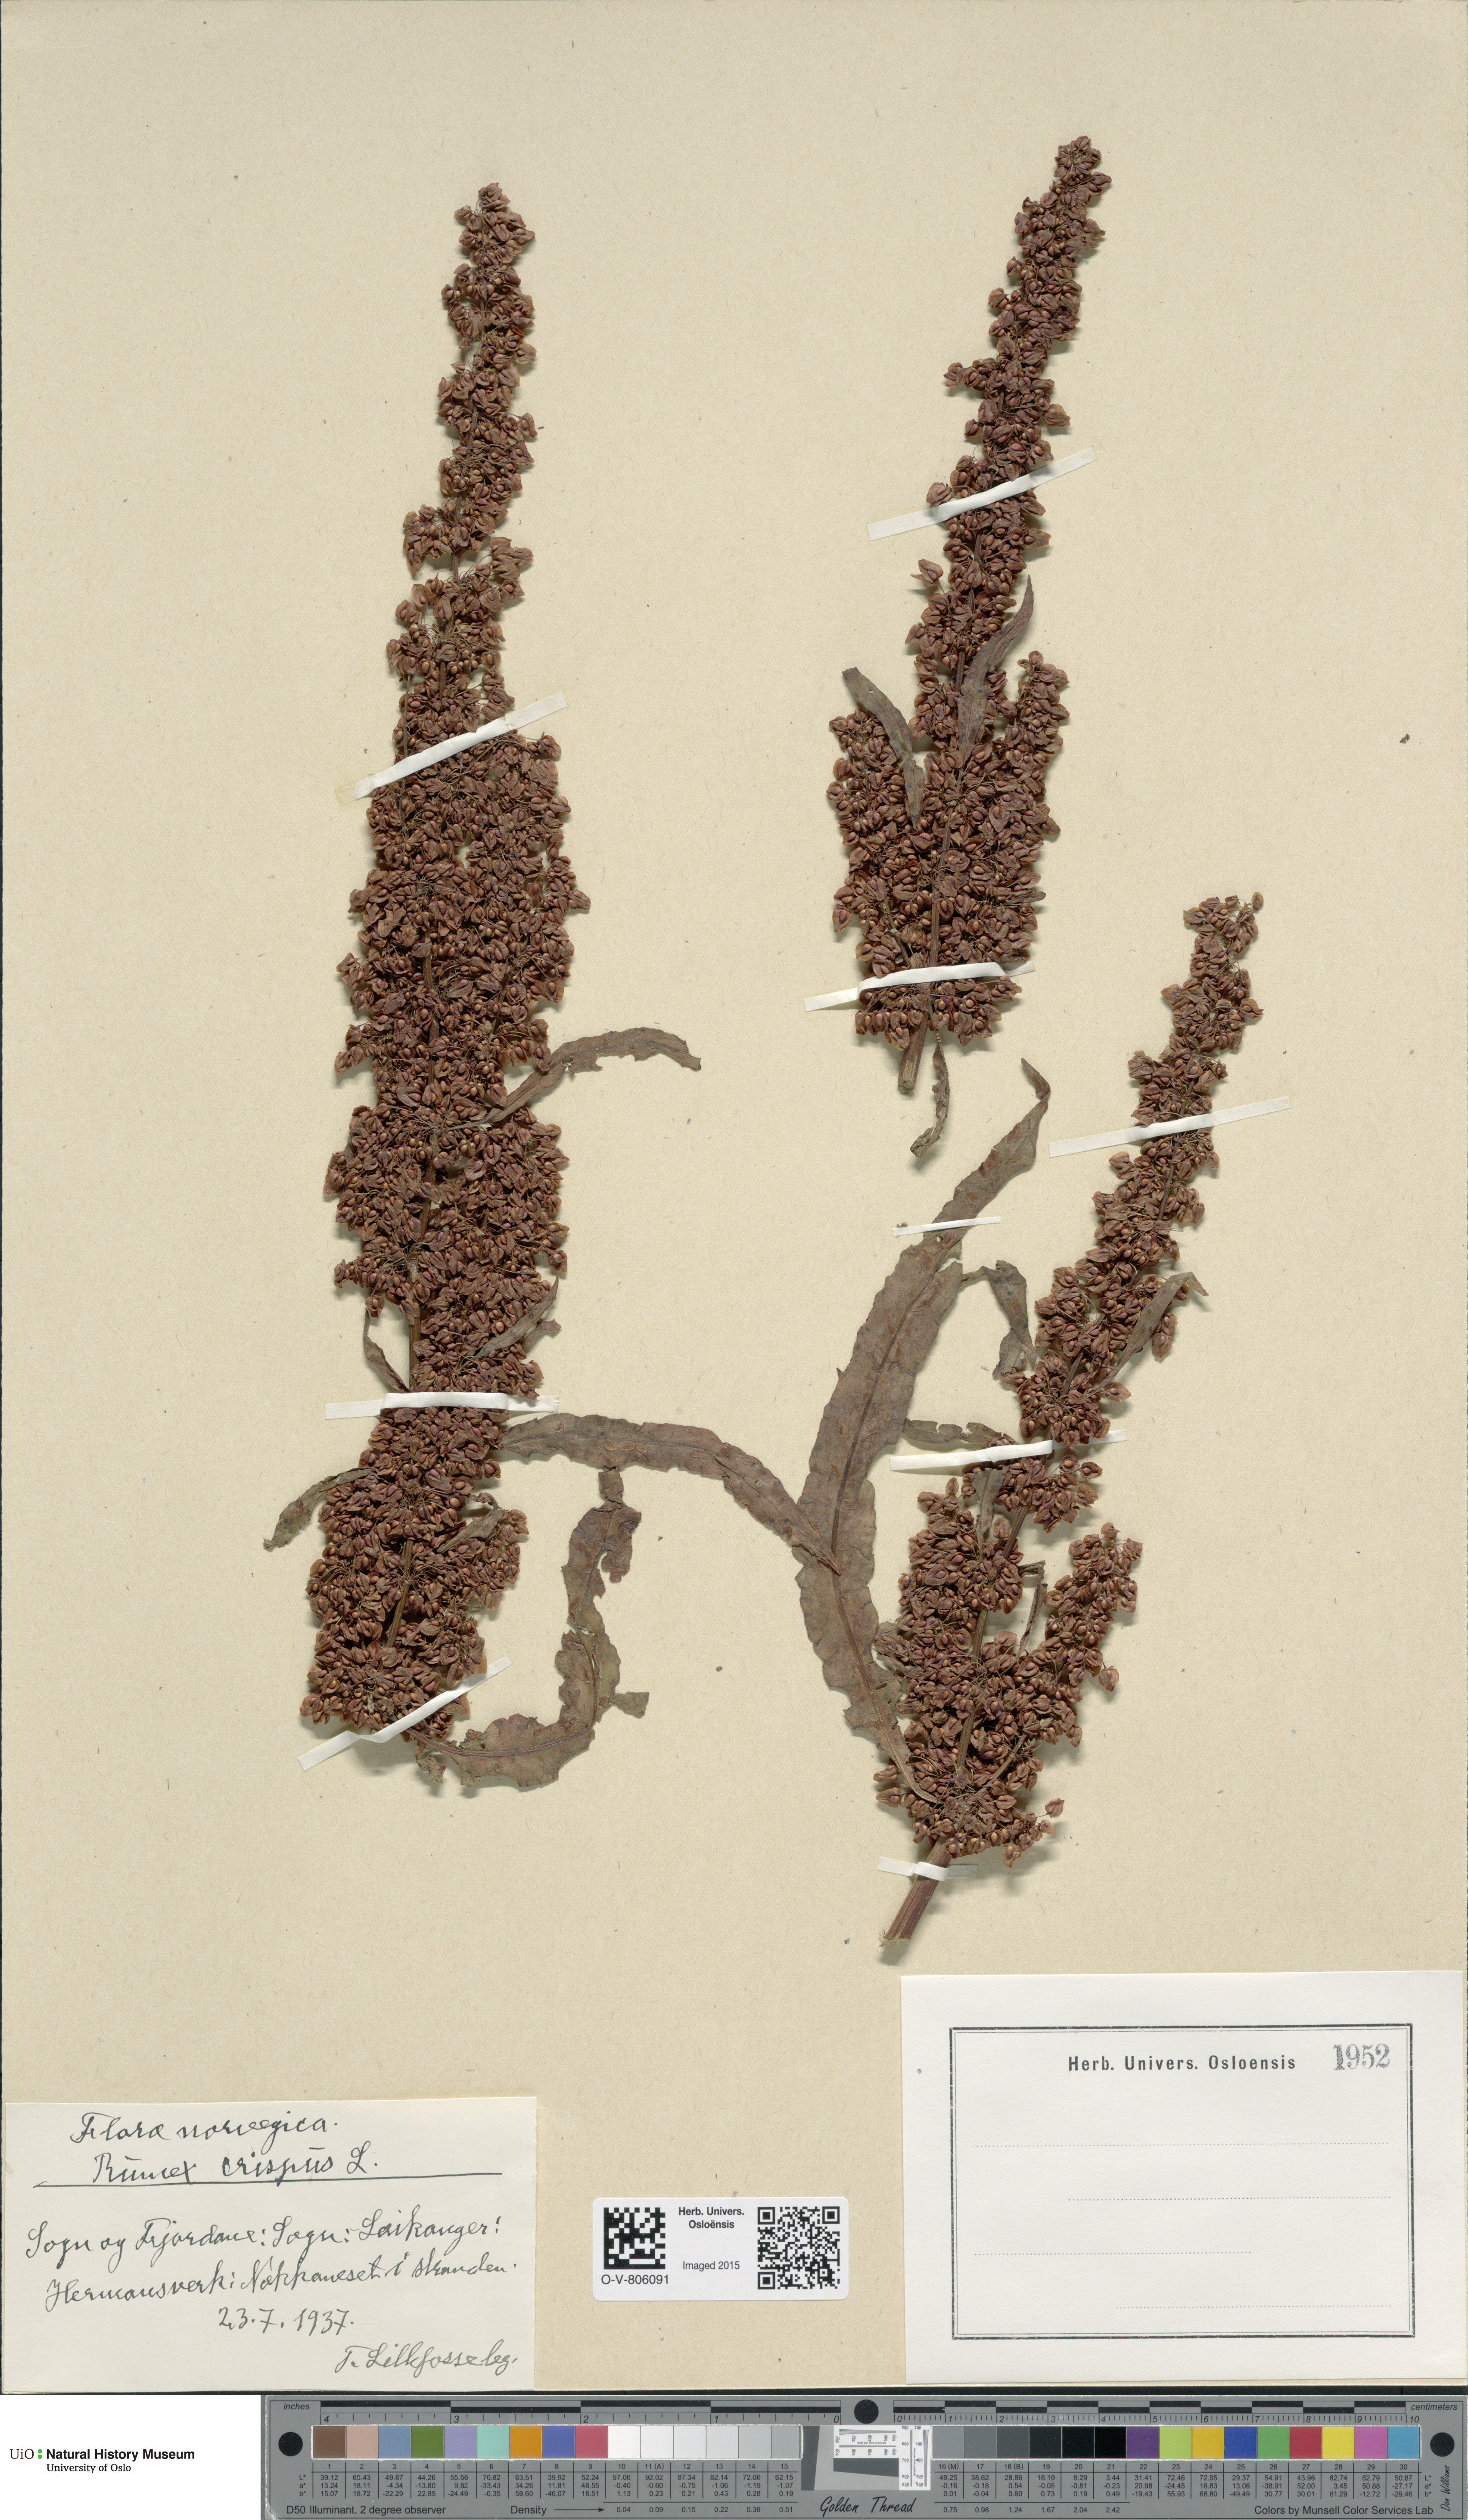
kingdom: Plantae
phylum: Tracheophyta
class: Magnoliopsida
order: Caryophyllales
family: Polygonaceae
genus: Rumex
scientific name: Rumex crispus
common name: Curled dock
